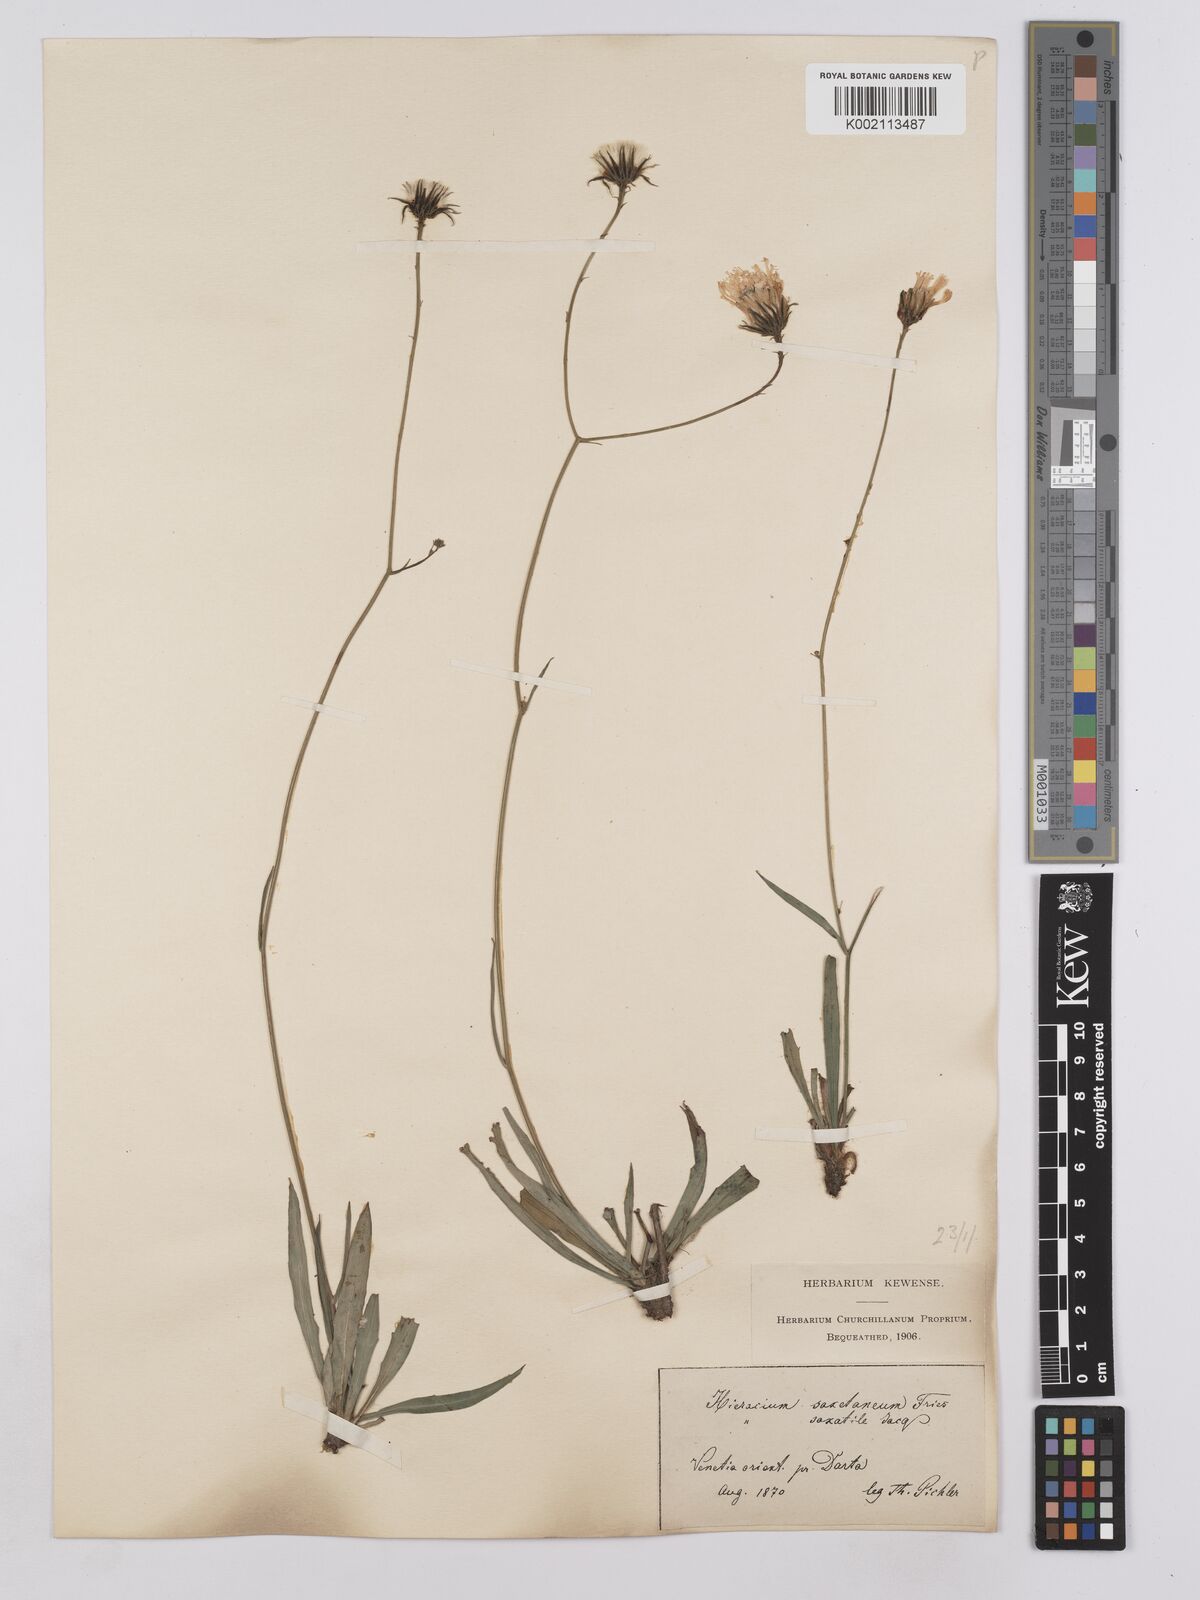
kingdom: Plantae
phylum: Tracheophyta
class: Magnoliopsida
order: Asterales
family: Asteraceae
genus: Hieracium
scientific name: Hieracium saxatile
